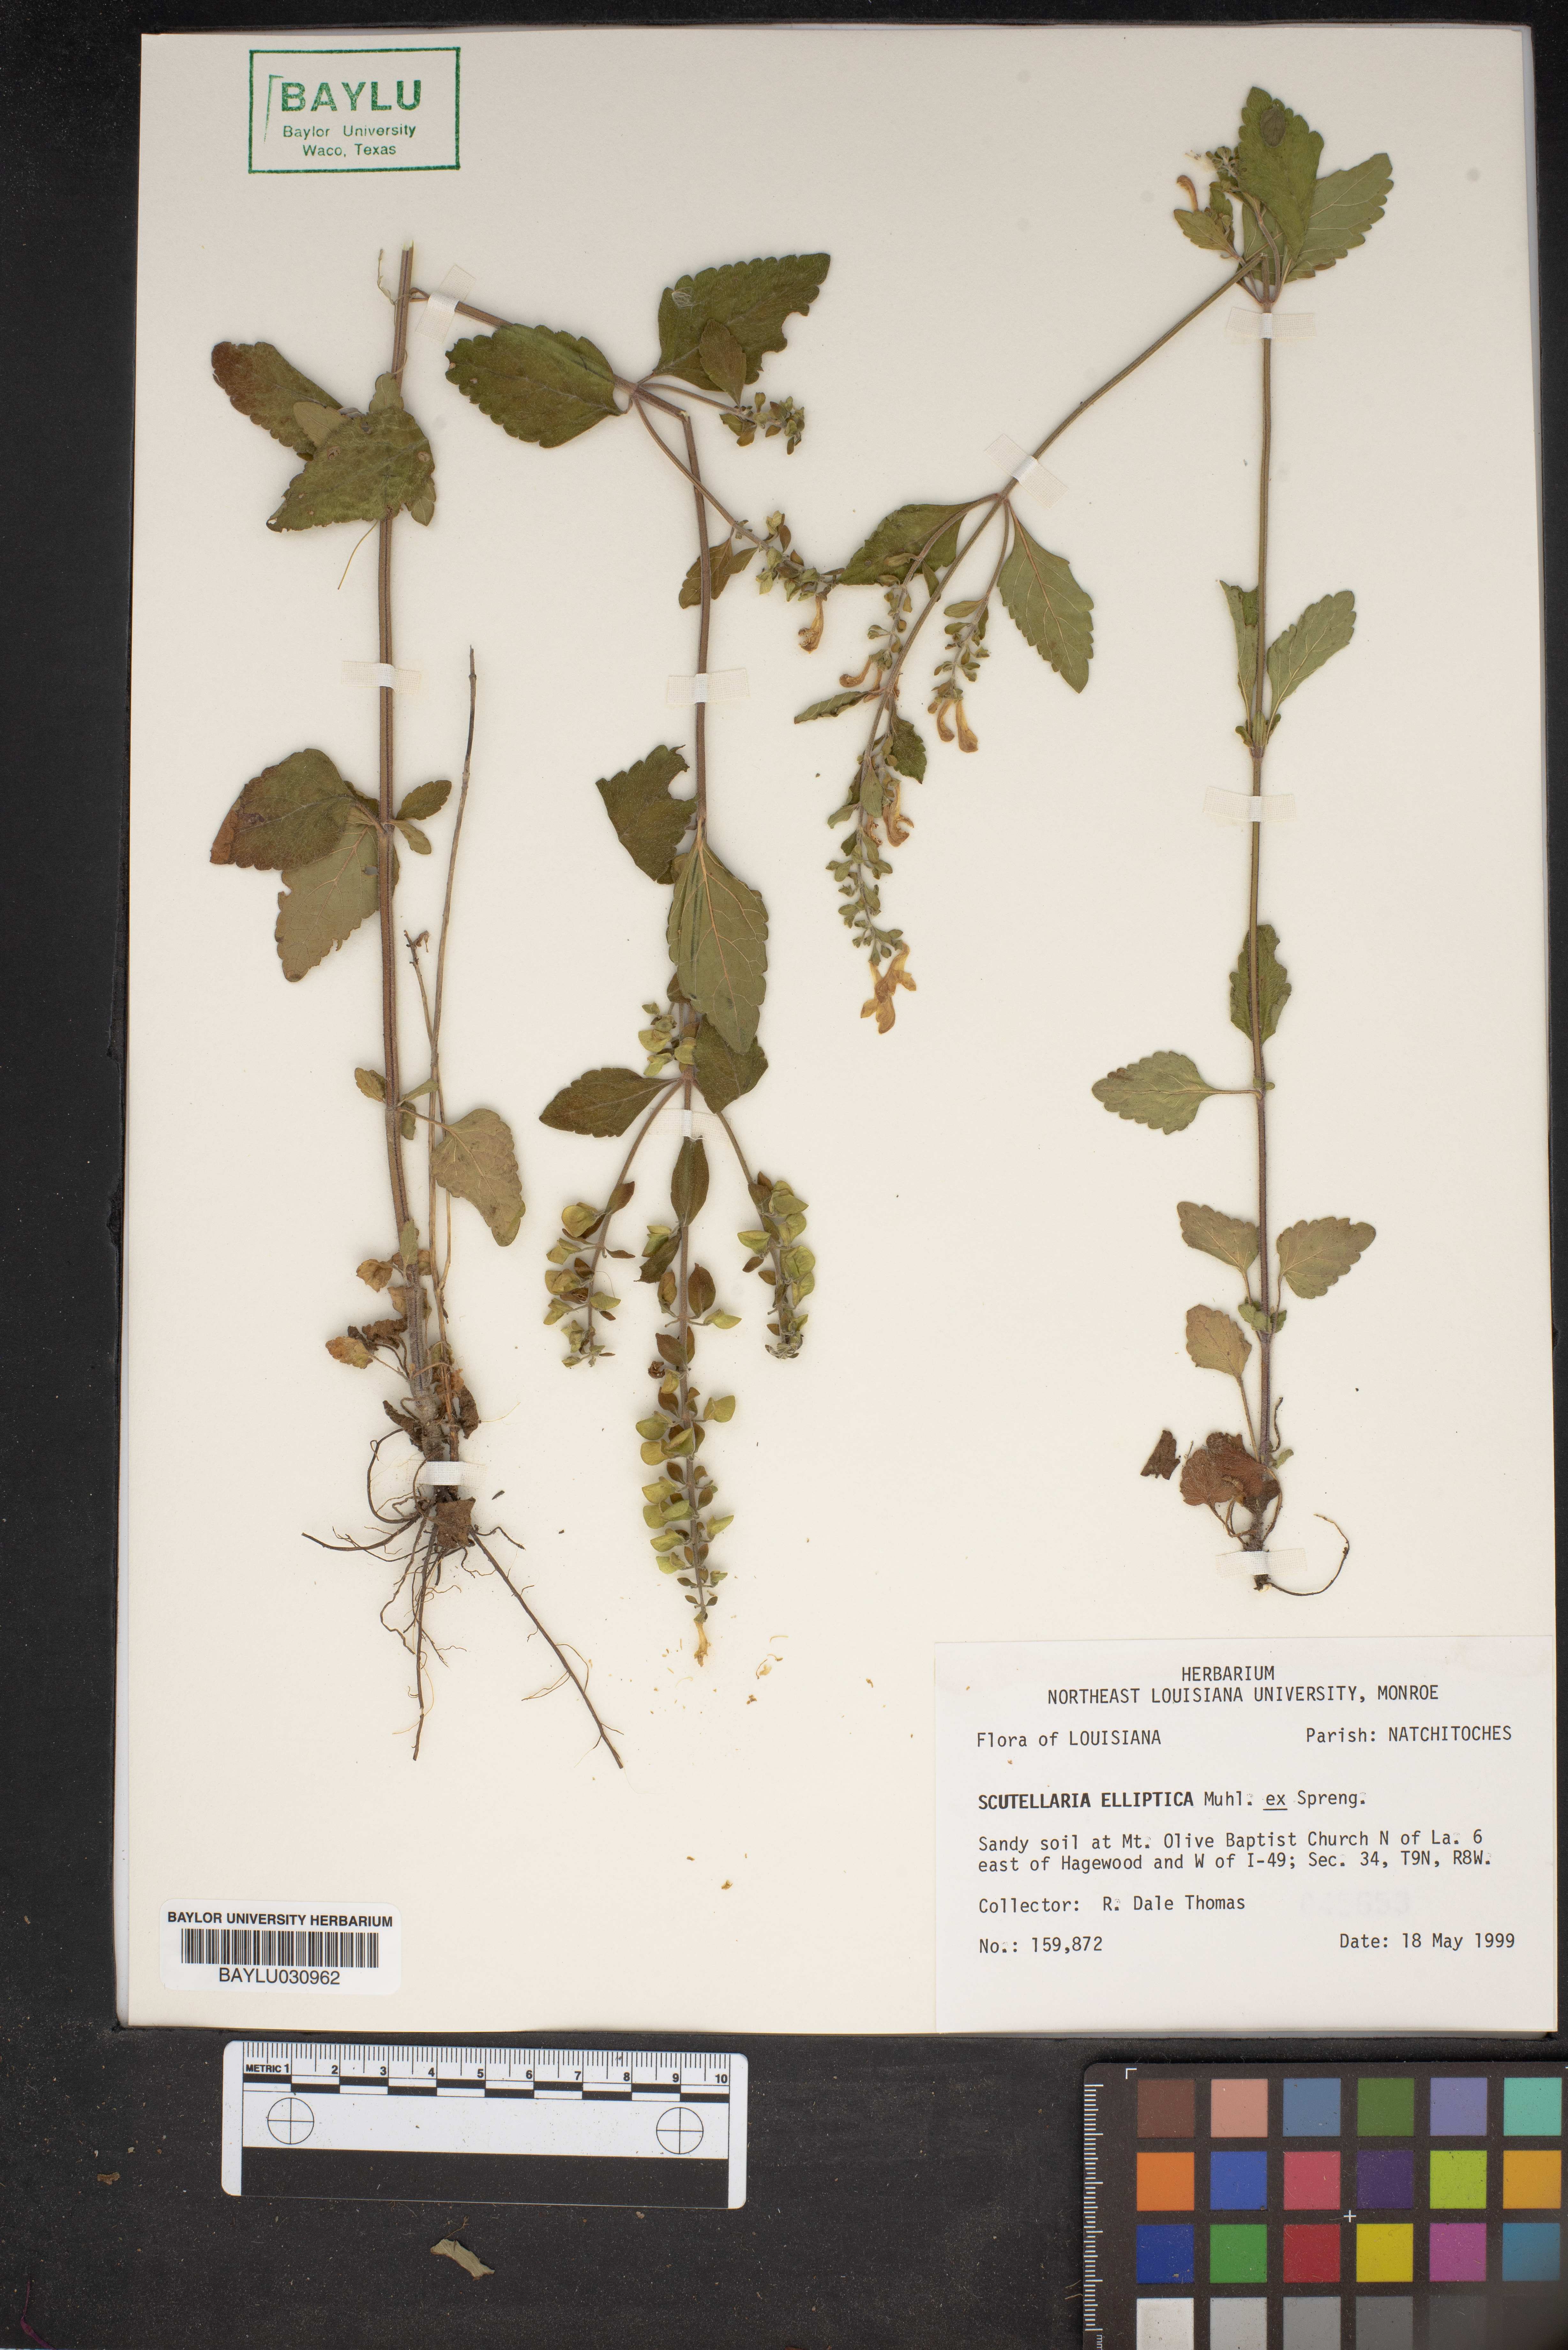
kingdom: Plantae
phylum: Tracheophyta
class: Magnoliopsida
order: Lamiales
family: Lamiaceae
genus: Scutellaria
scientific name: Scutellaria elliptica
